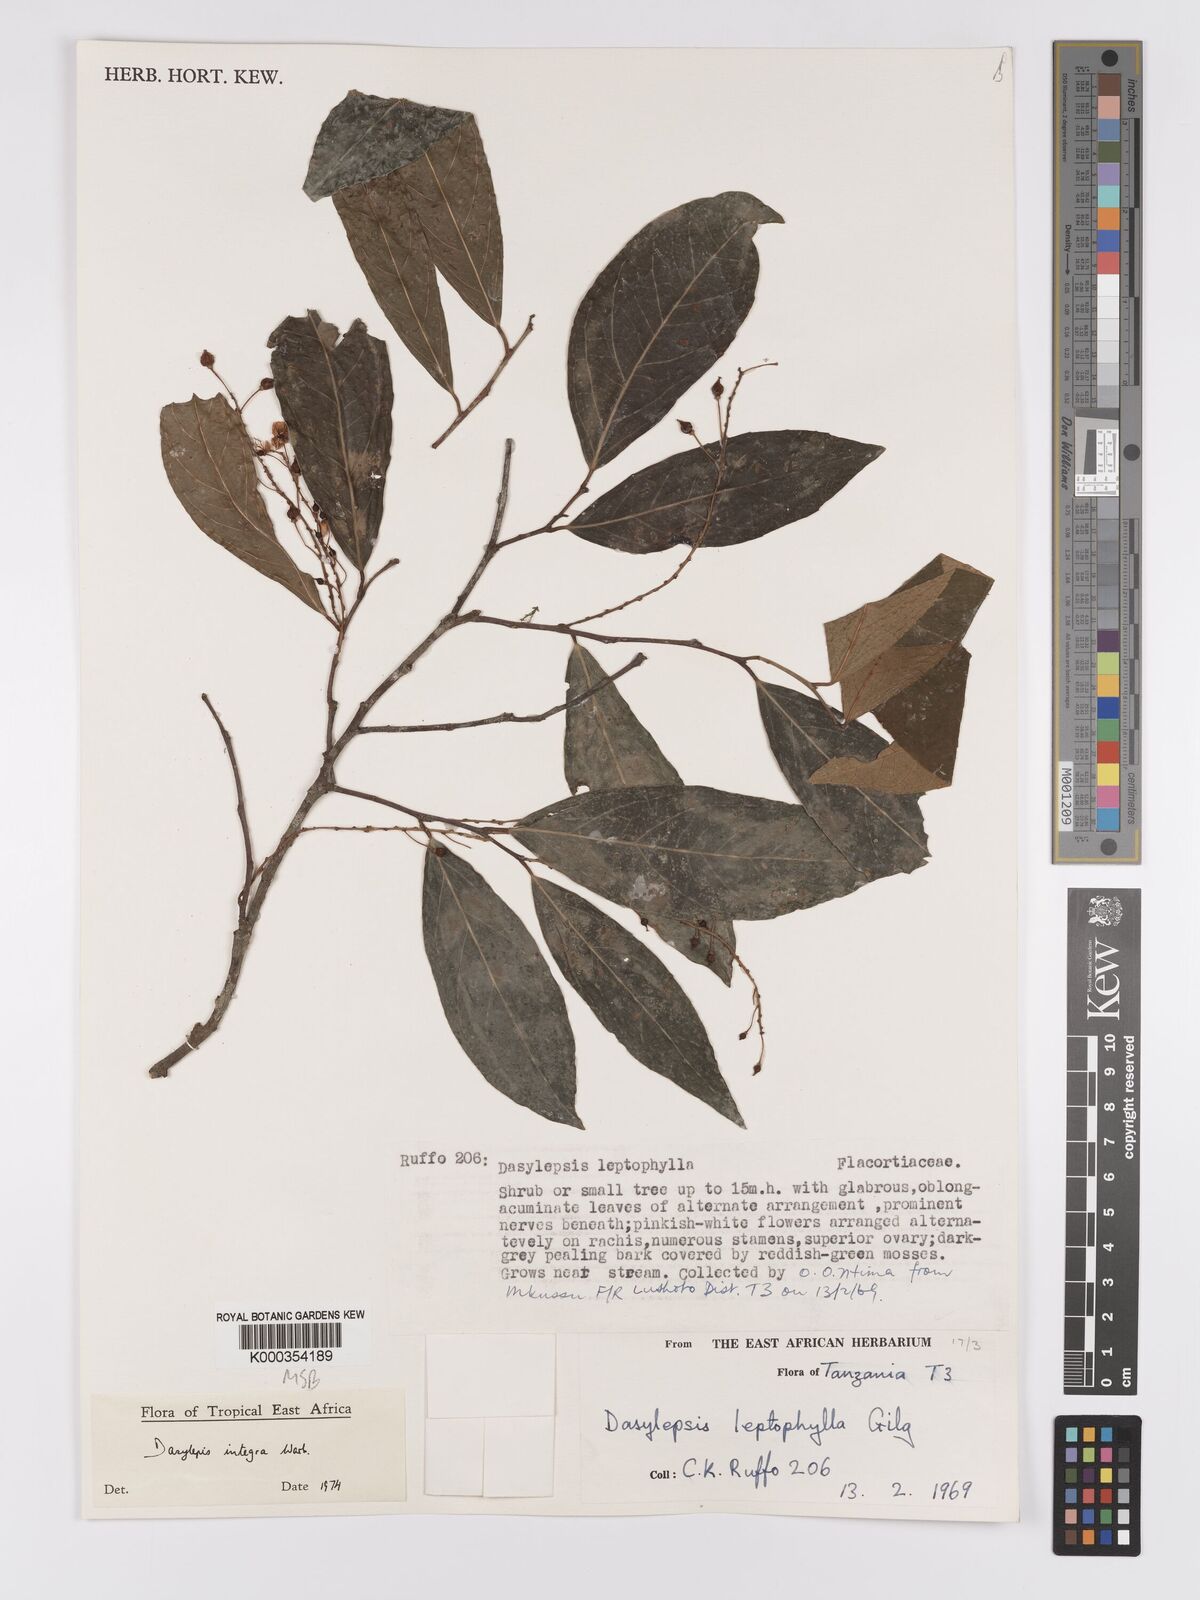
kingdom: Plantae
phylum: Tracheophyta
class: Magnoliopsida
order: Malpighiales
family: Achariaceae
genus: Dasylepis
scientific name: Dasylepis integra
